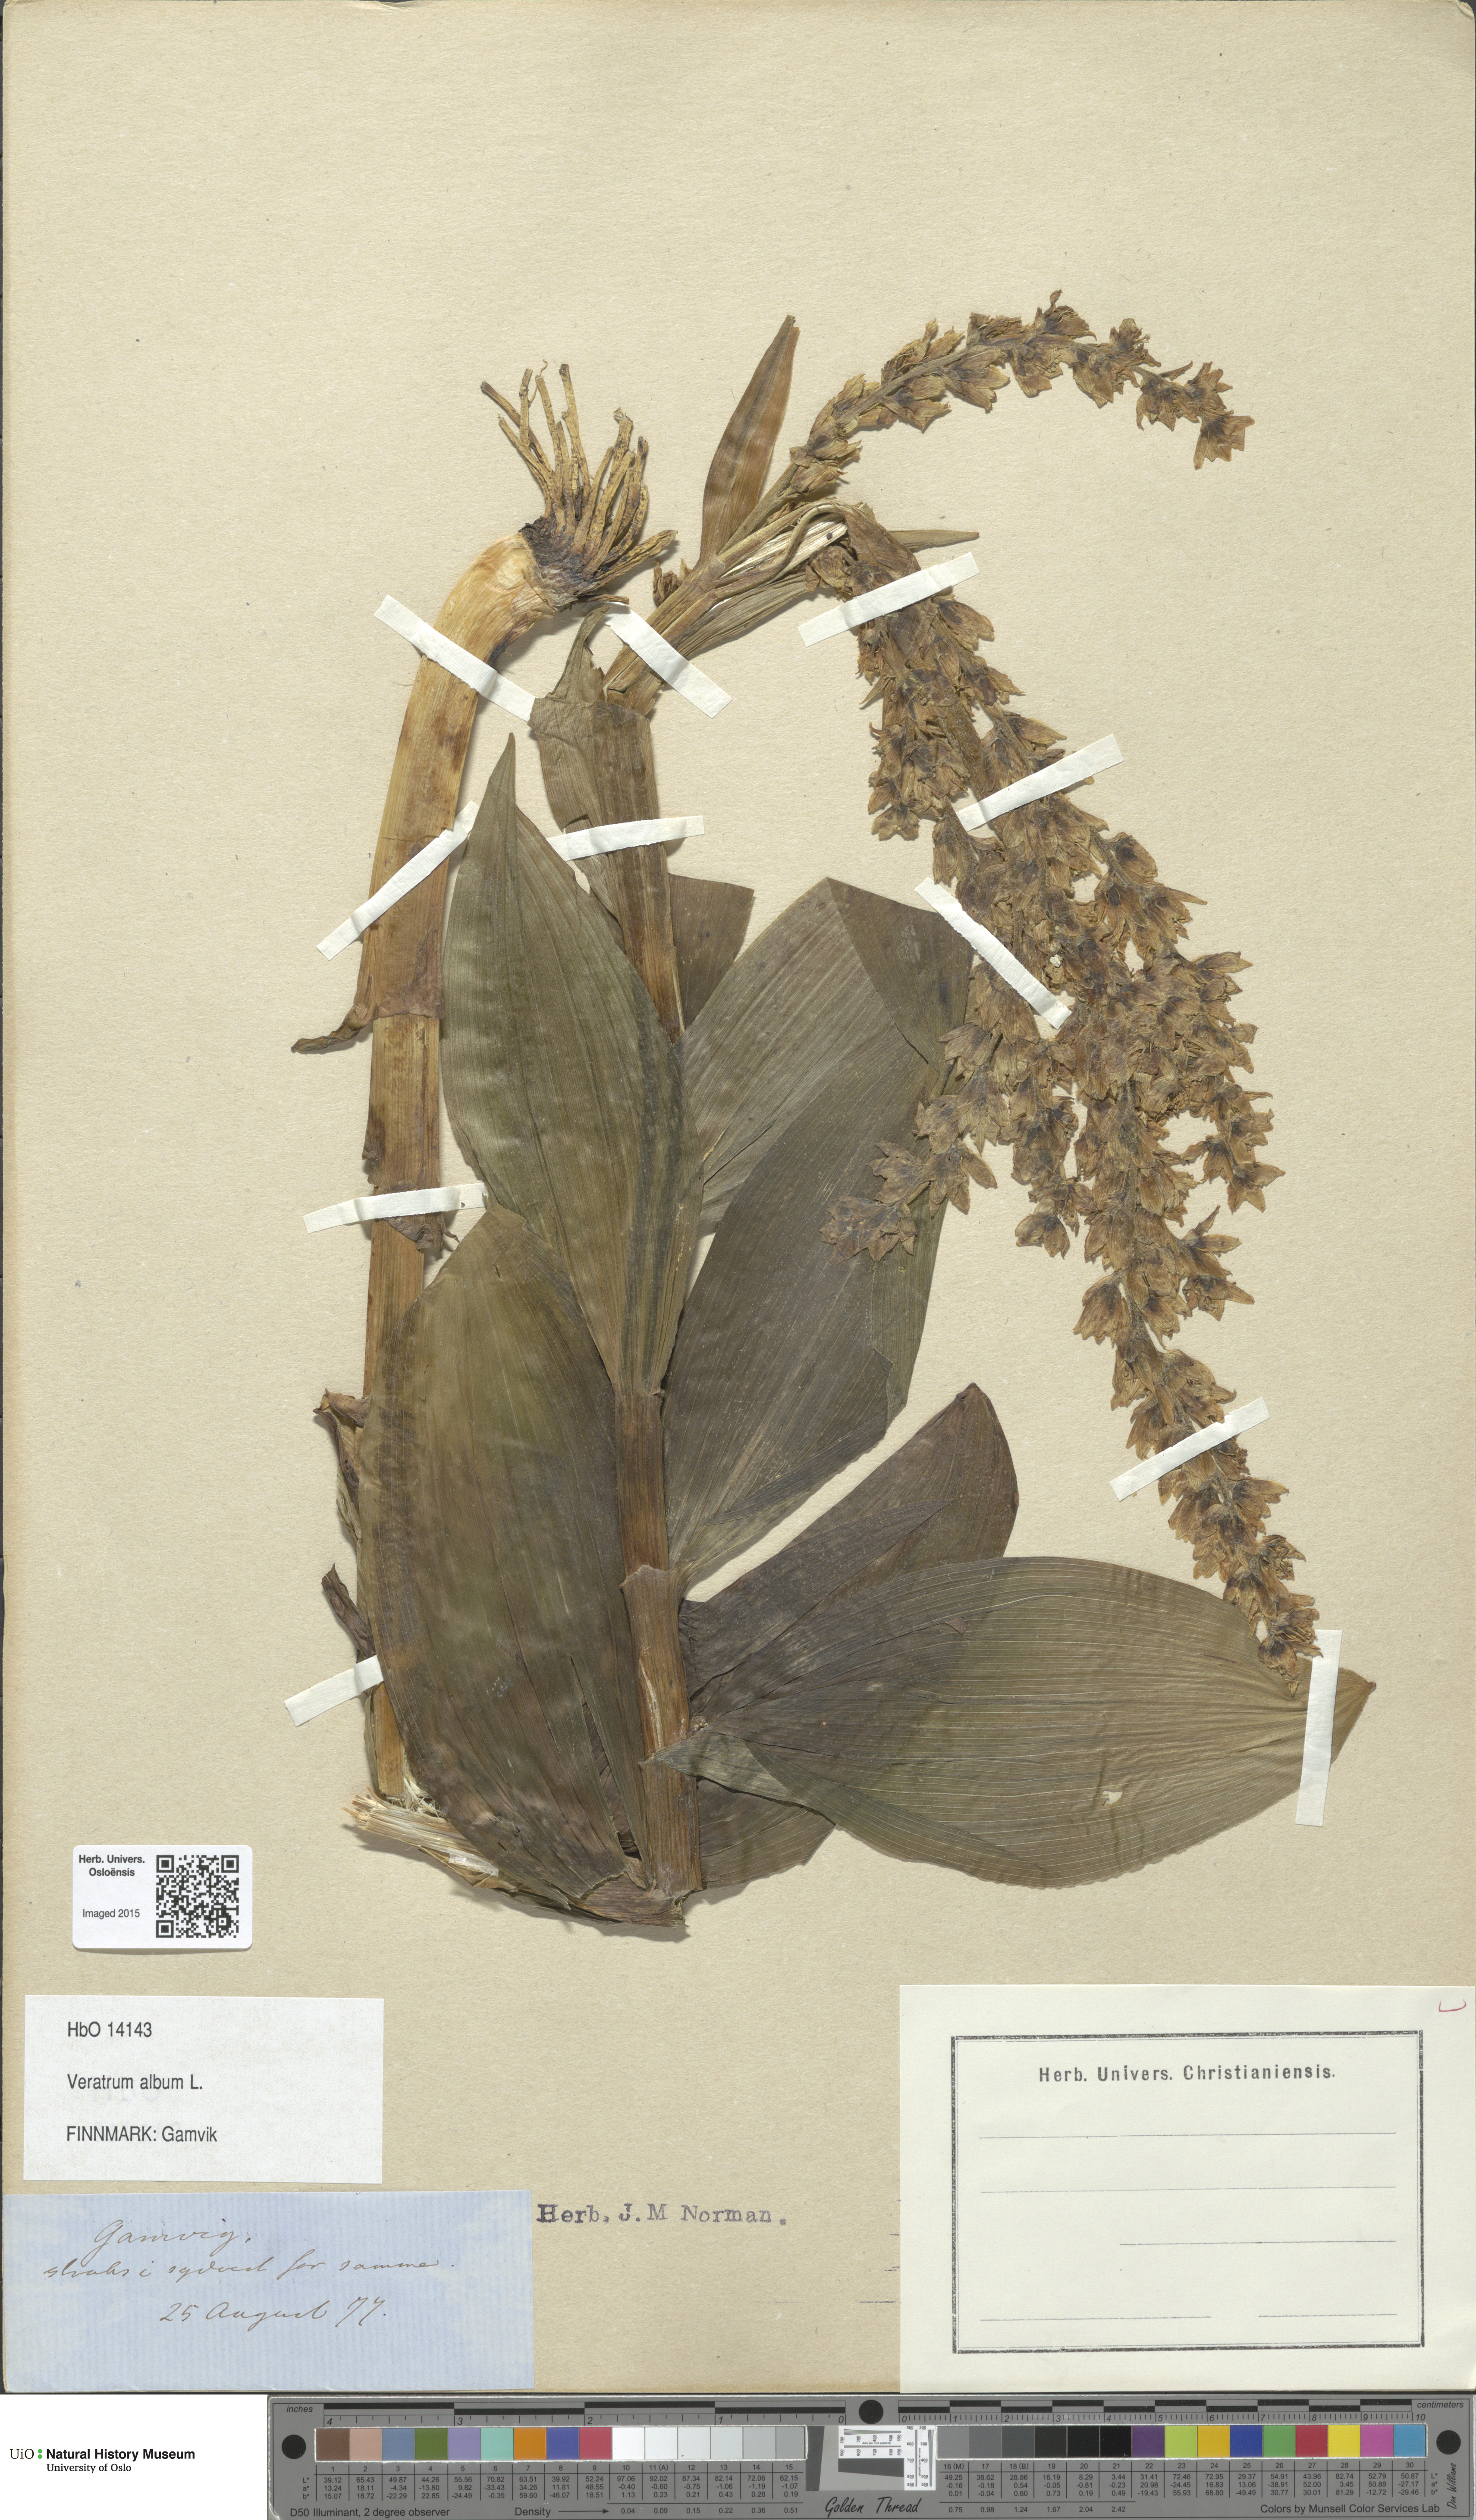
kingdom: Plantae
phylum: Tracheophyta
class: Liliopsida
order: Liliales
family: Melanthiaceae
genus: Veratrum
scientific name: Veratrum album
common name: White veratrum
